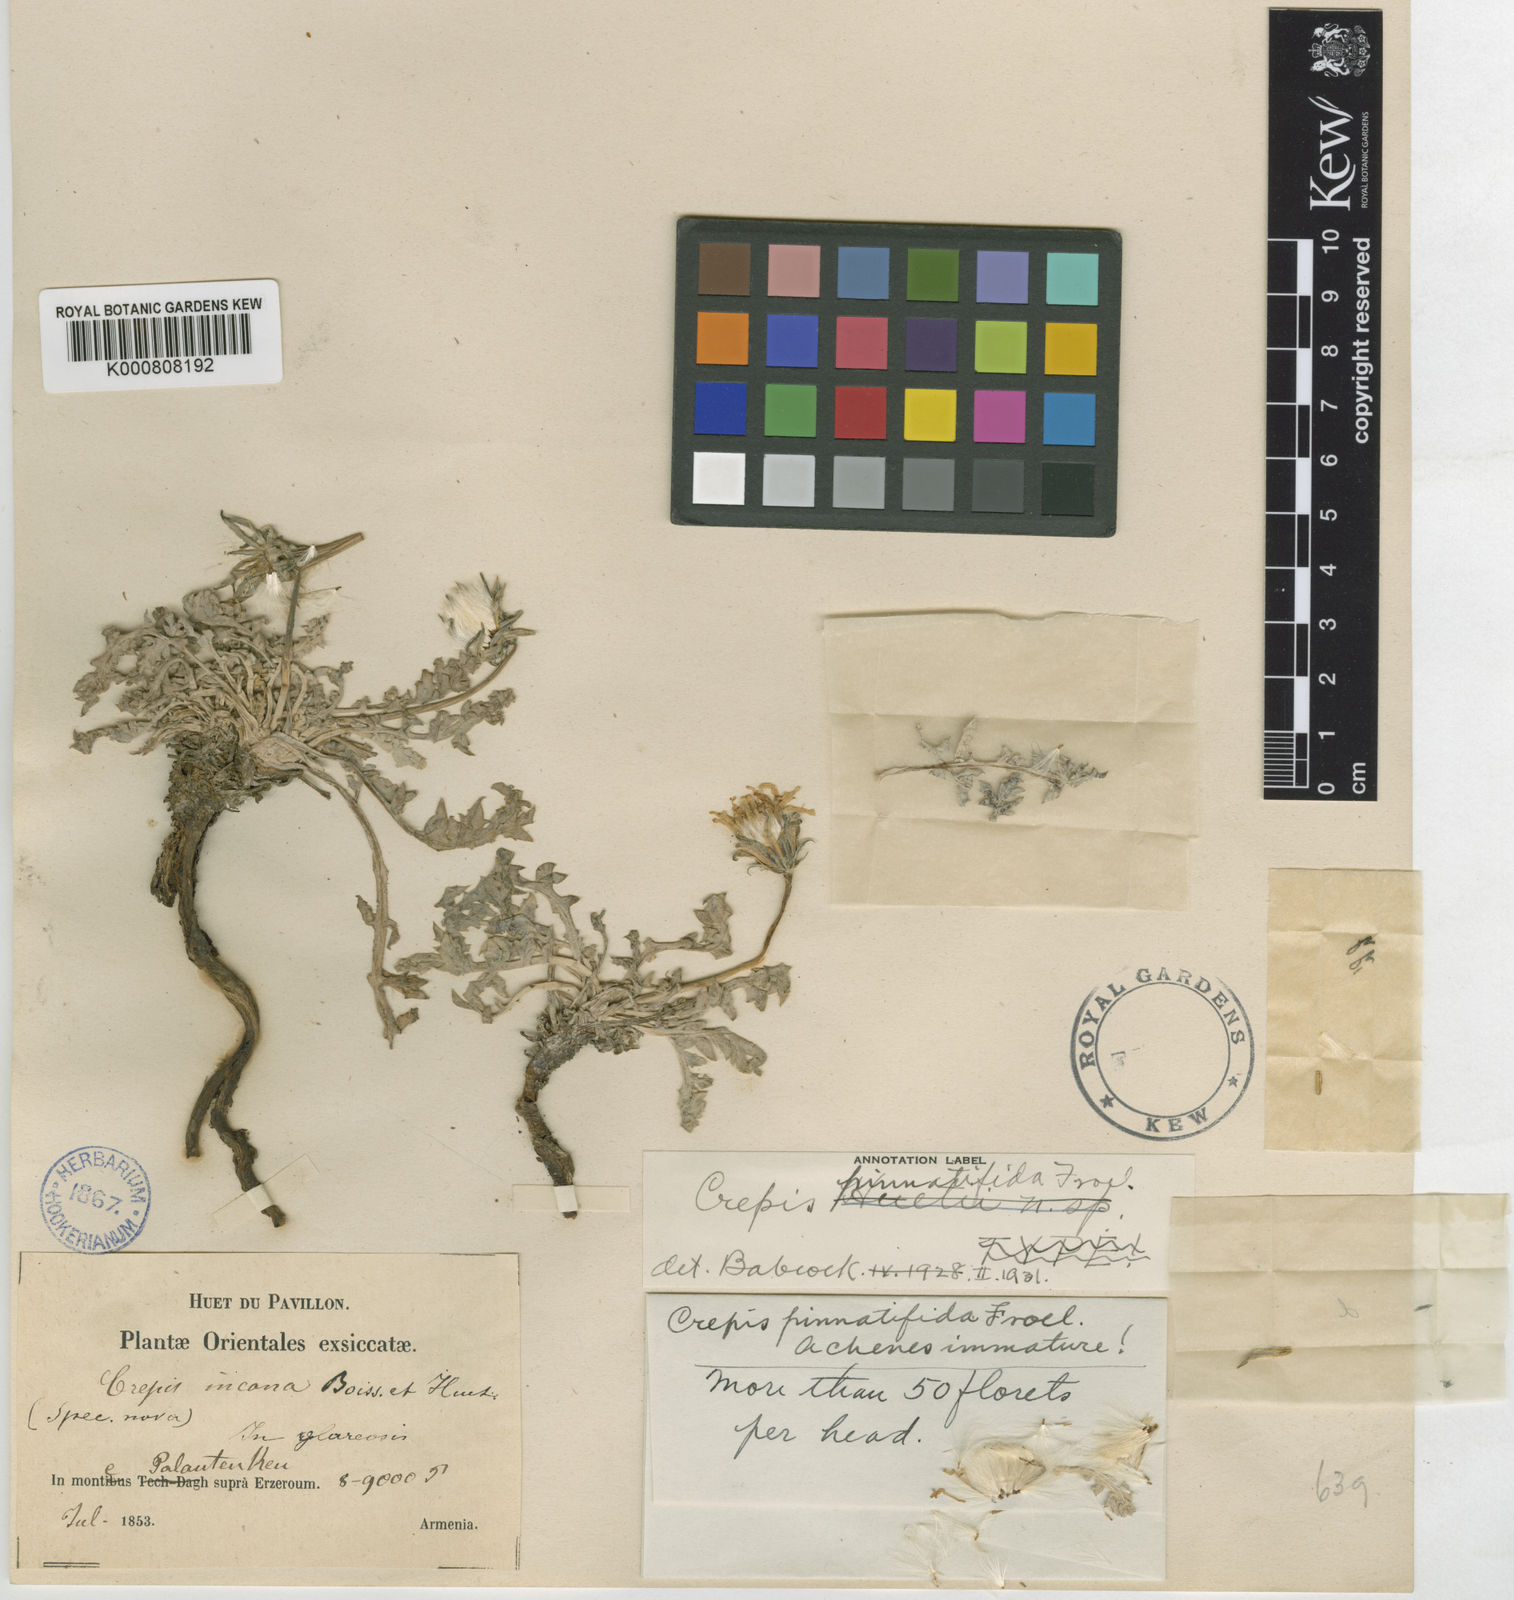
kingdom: Plantae
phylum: Tracheophyta
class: Magnoliopsida
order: Asterales
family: Asteraceae
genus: Crepis
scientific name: Crepis willdenowii
